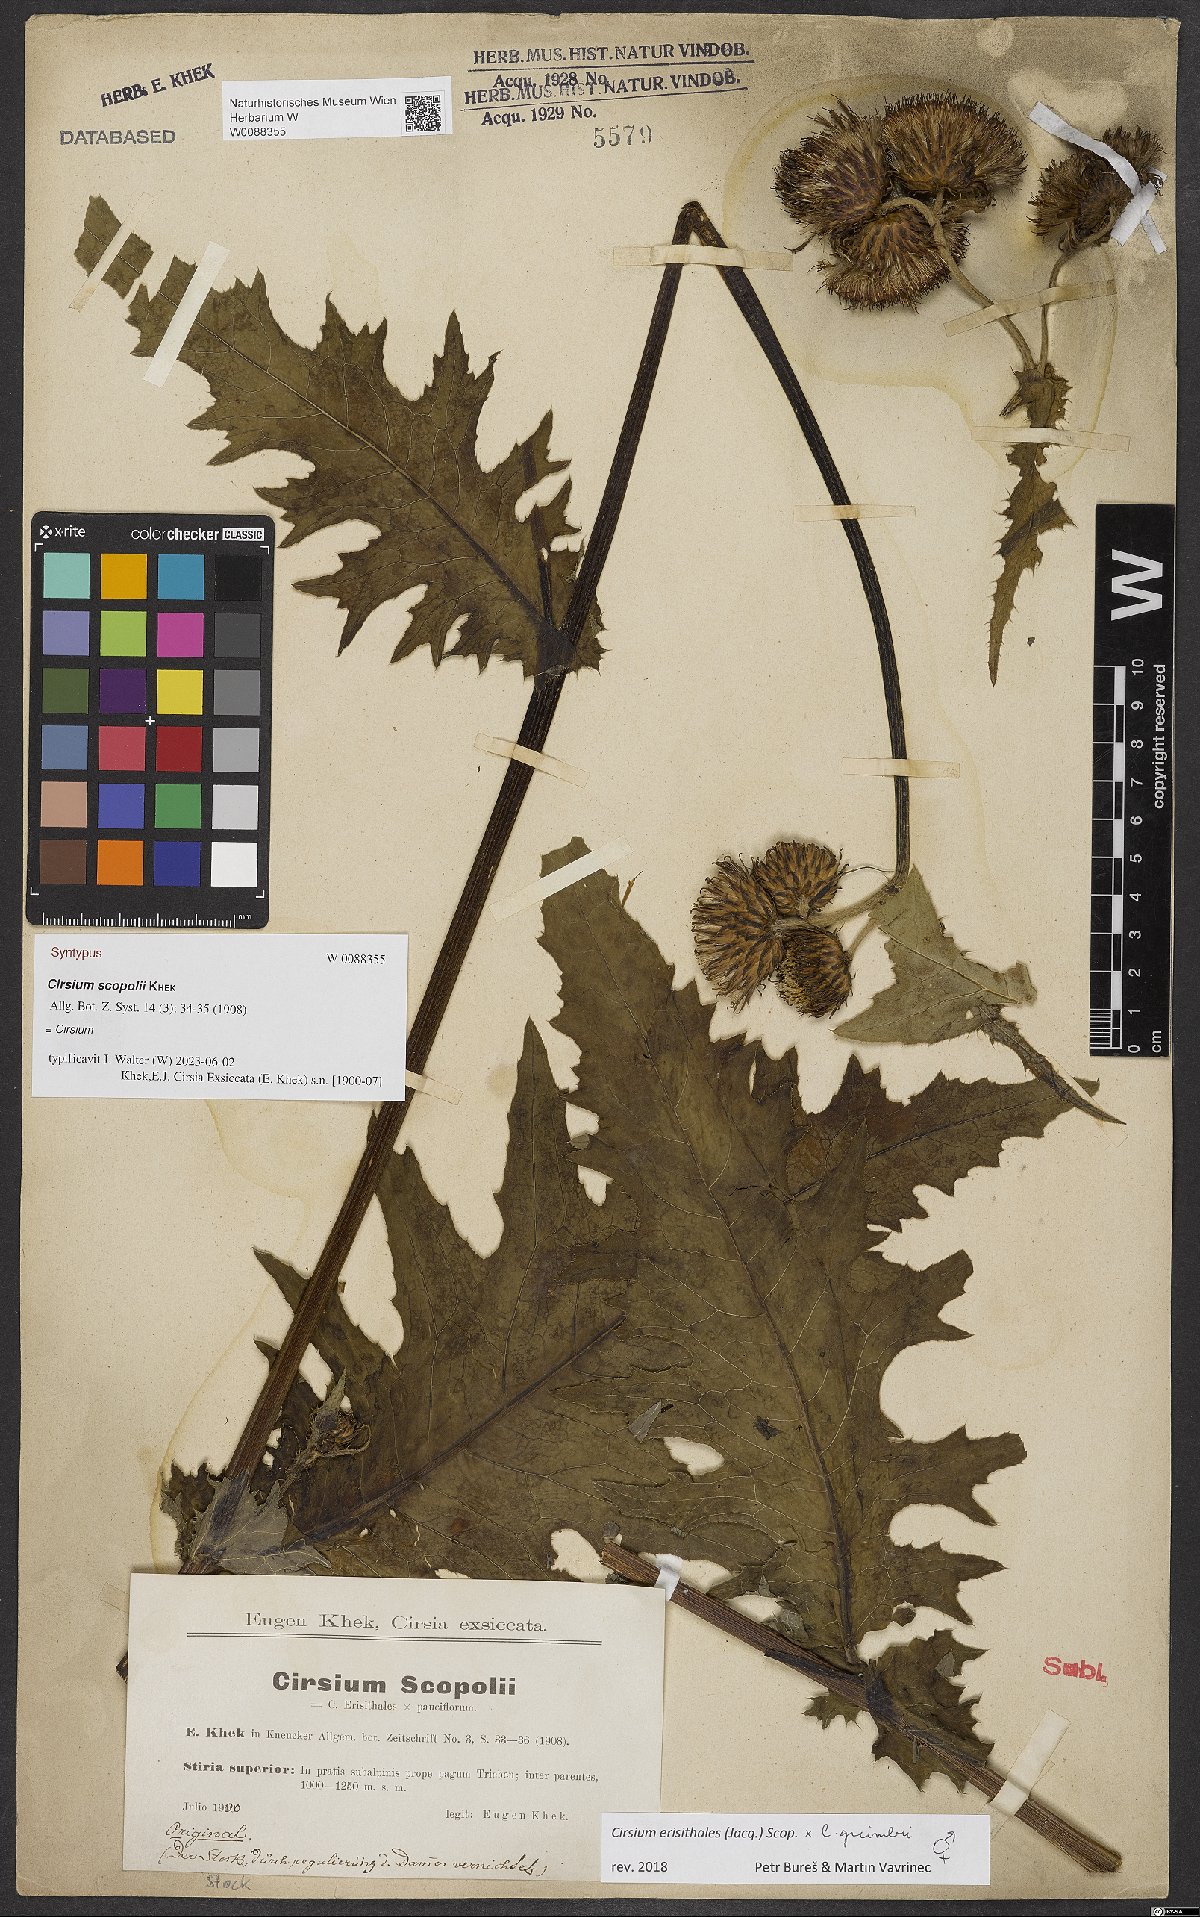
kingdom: Plantae
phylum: Tracheophyta
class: Magnoliopsida
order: Asterales
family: Asteraceae
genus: Cirsium
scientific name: Cirsium scopolii
